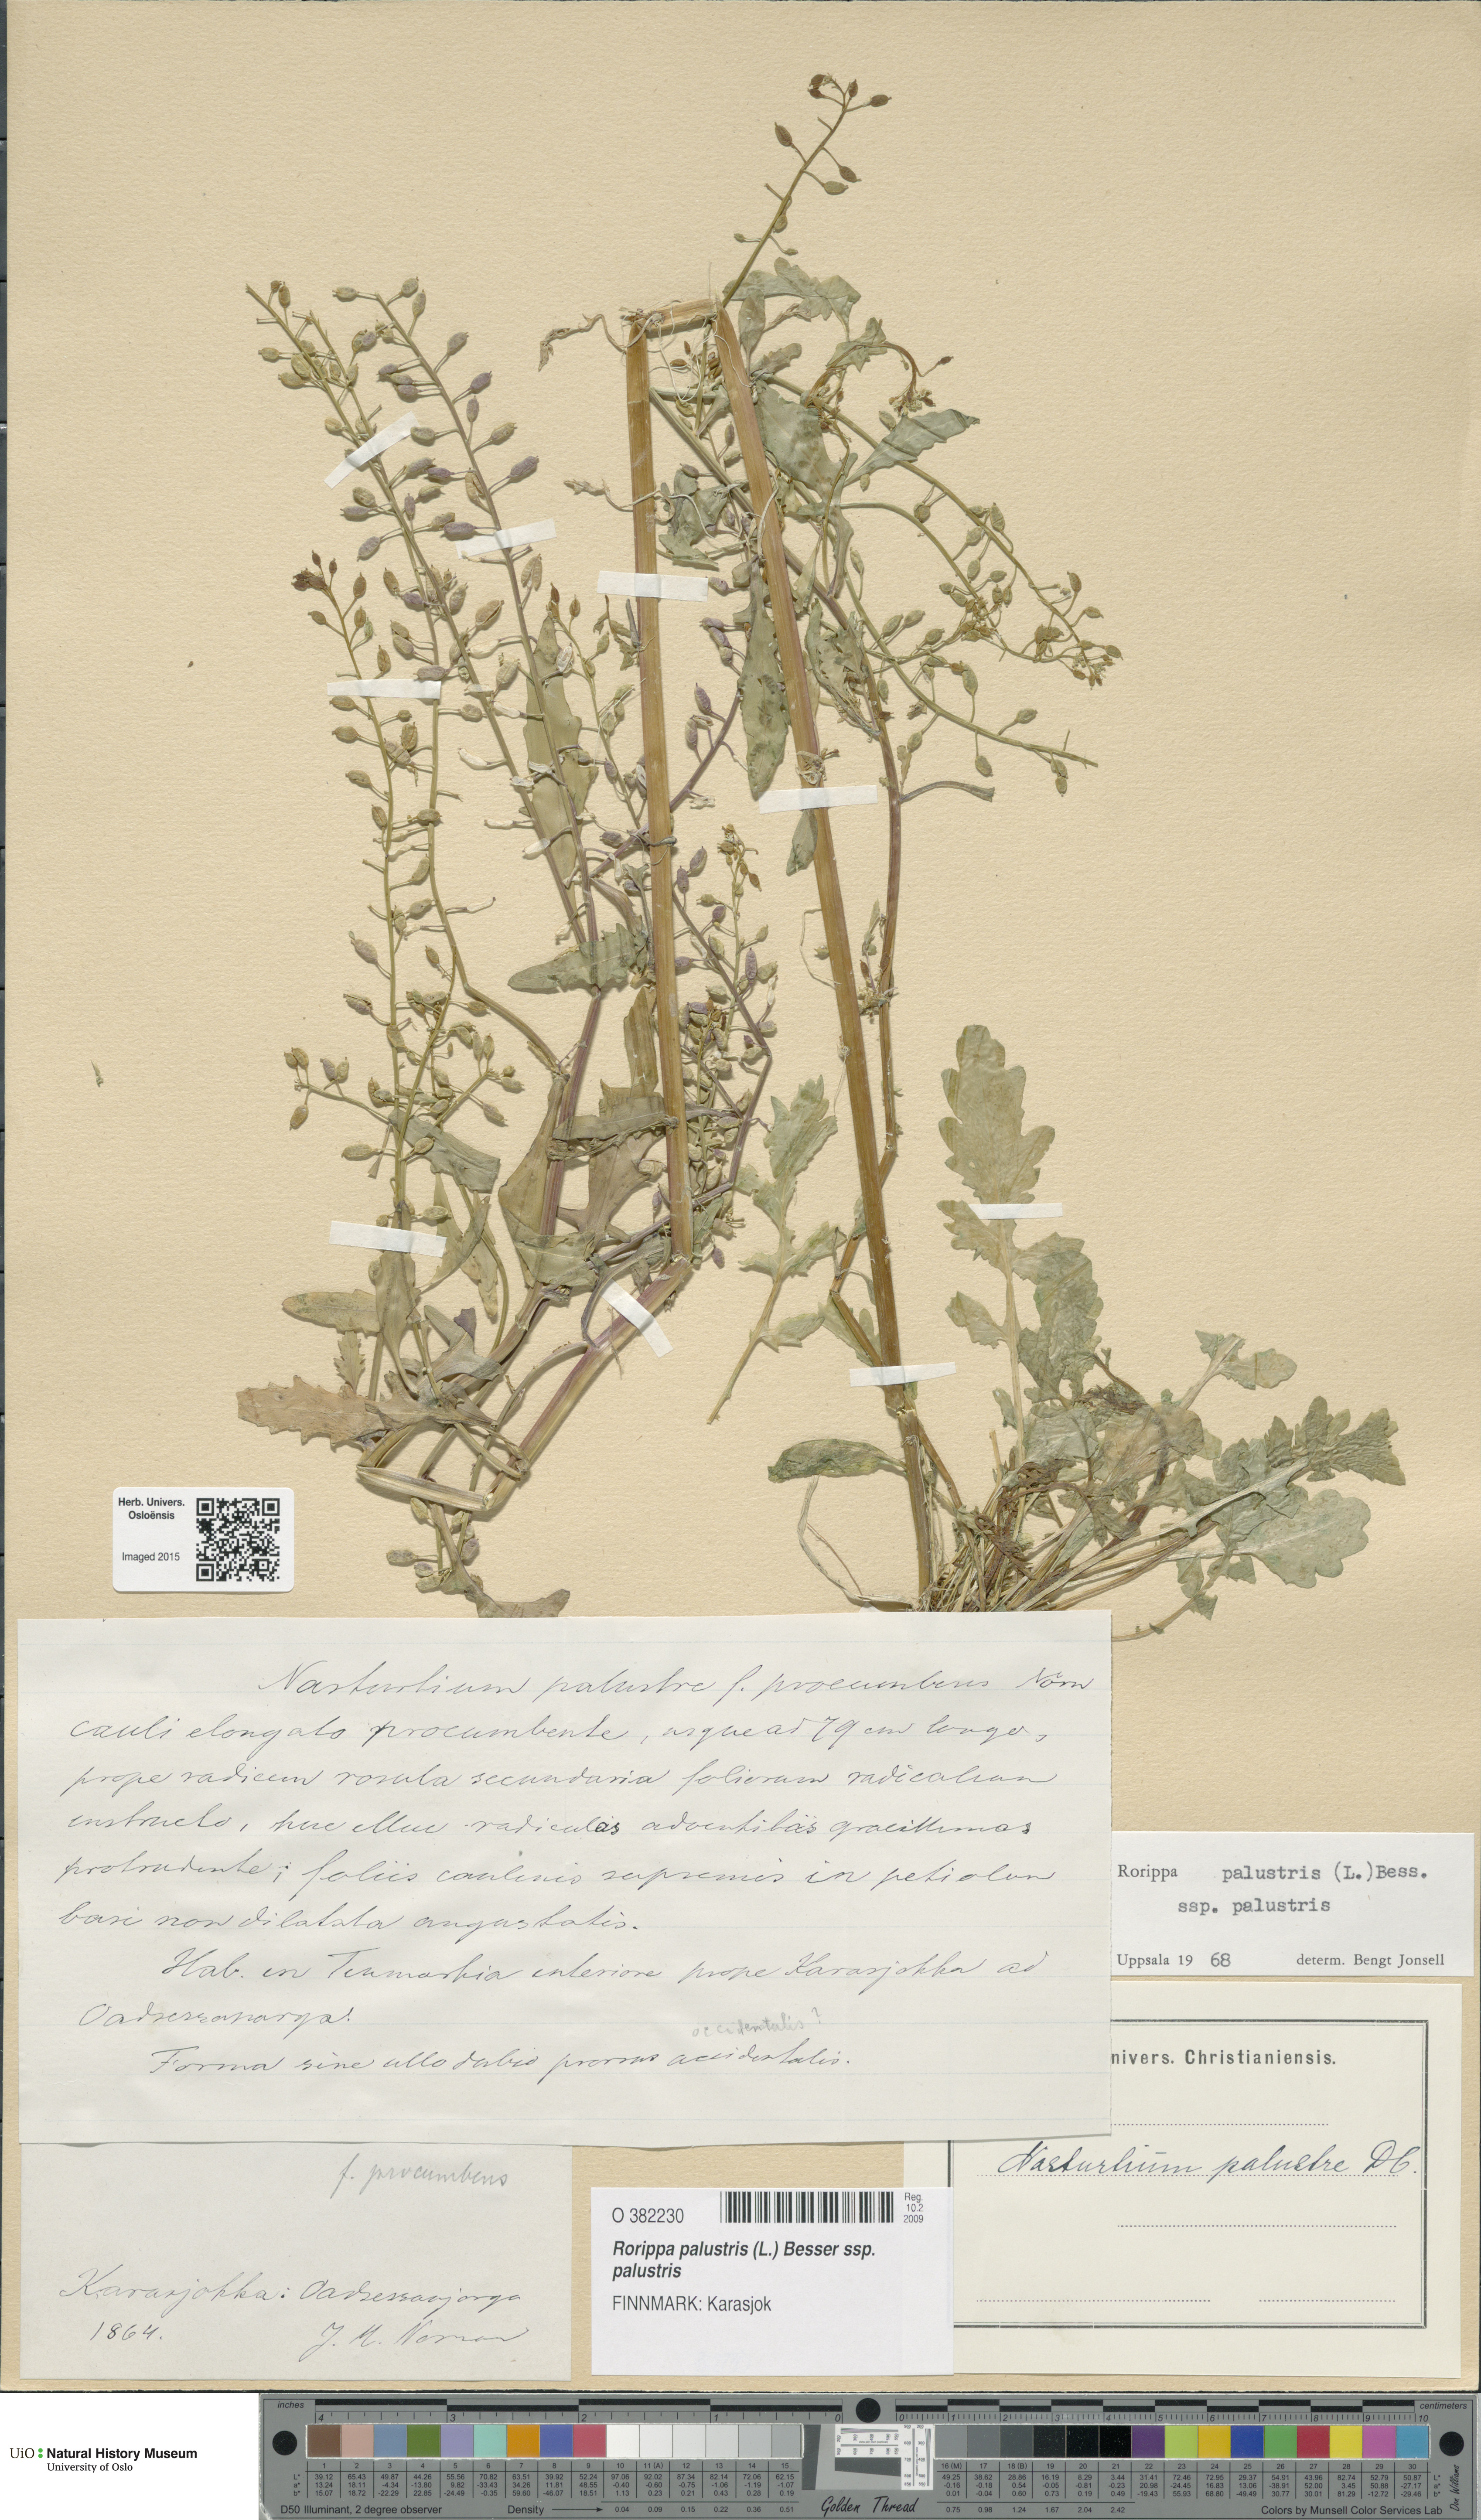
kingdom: Plantae
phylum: Tracheophyta
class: Magnoliopsida
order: Brassicales
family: Brassicaceae
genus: Rorippa
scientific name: Rorippa palustris
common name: Marsh yellow-cress
